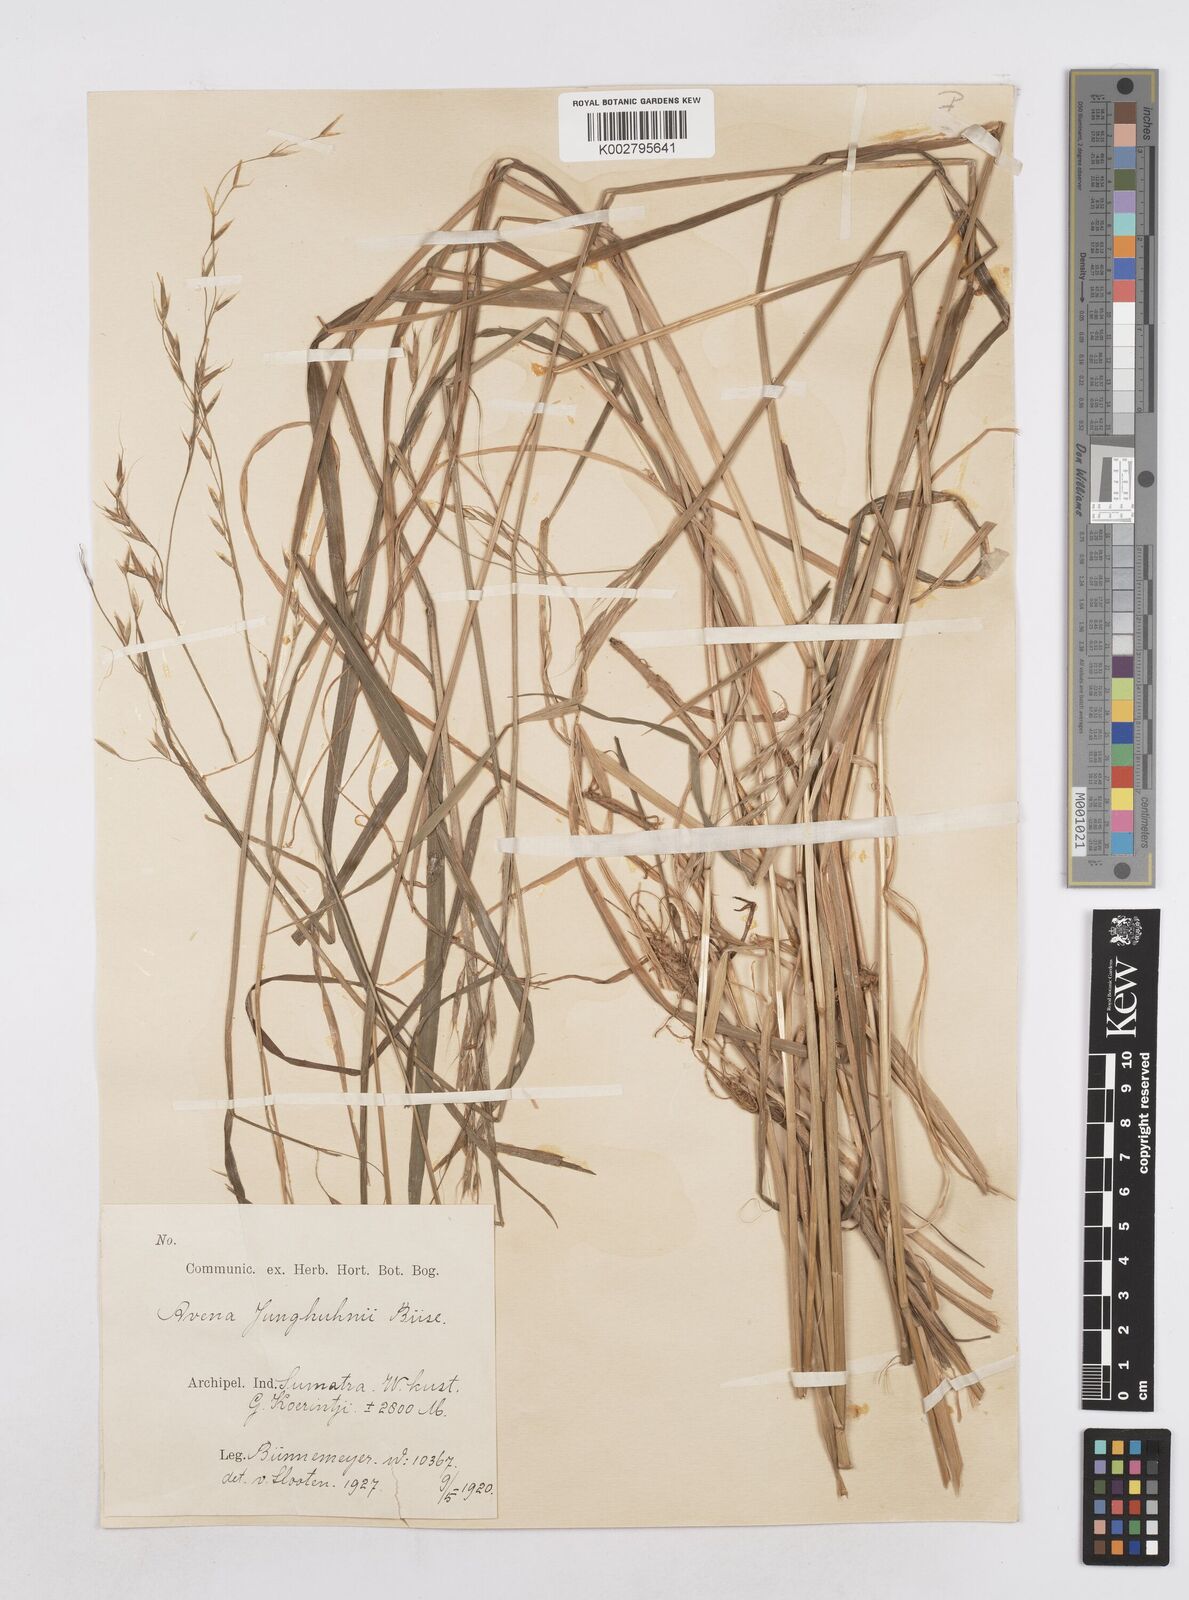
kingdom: Plantae
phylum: Tracheophyta
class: Liliopsida
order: Poales
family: Poaceae
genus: Trisetopsis
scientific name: Trisetopsis junghuhnii
